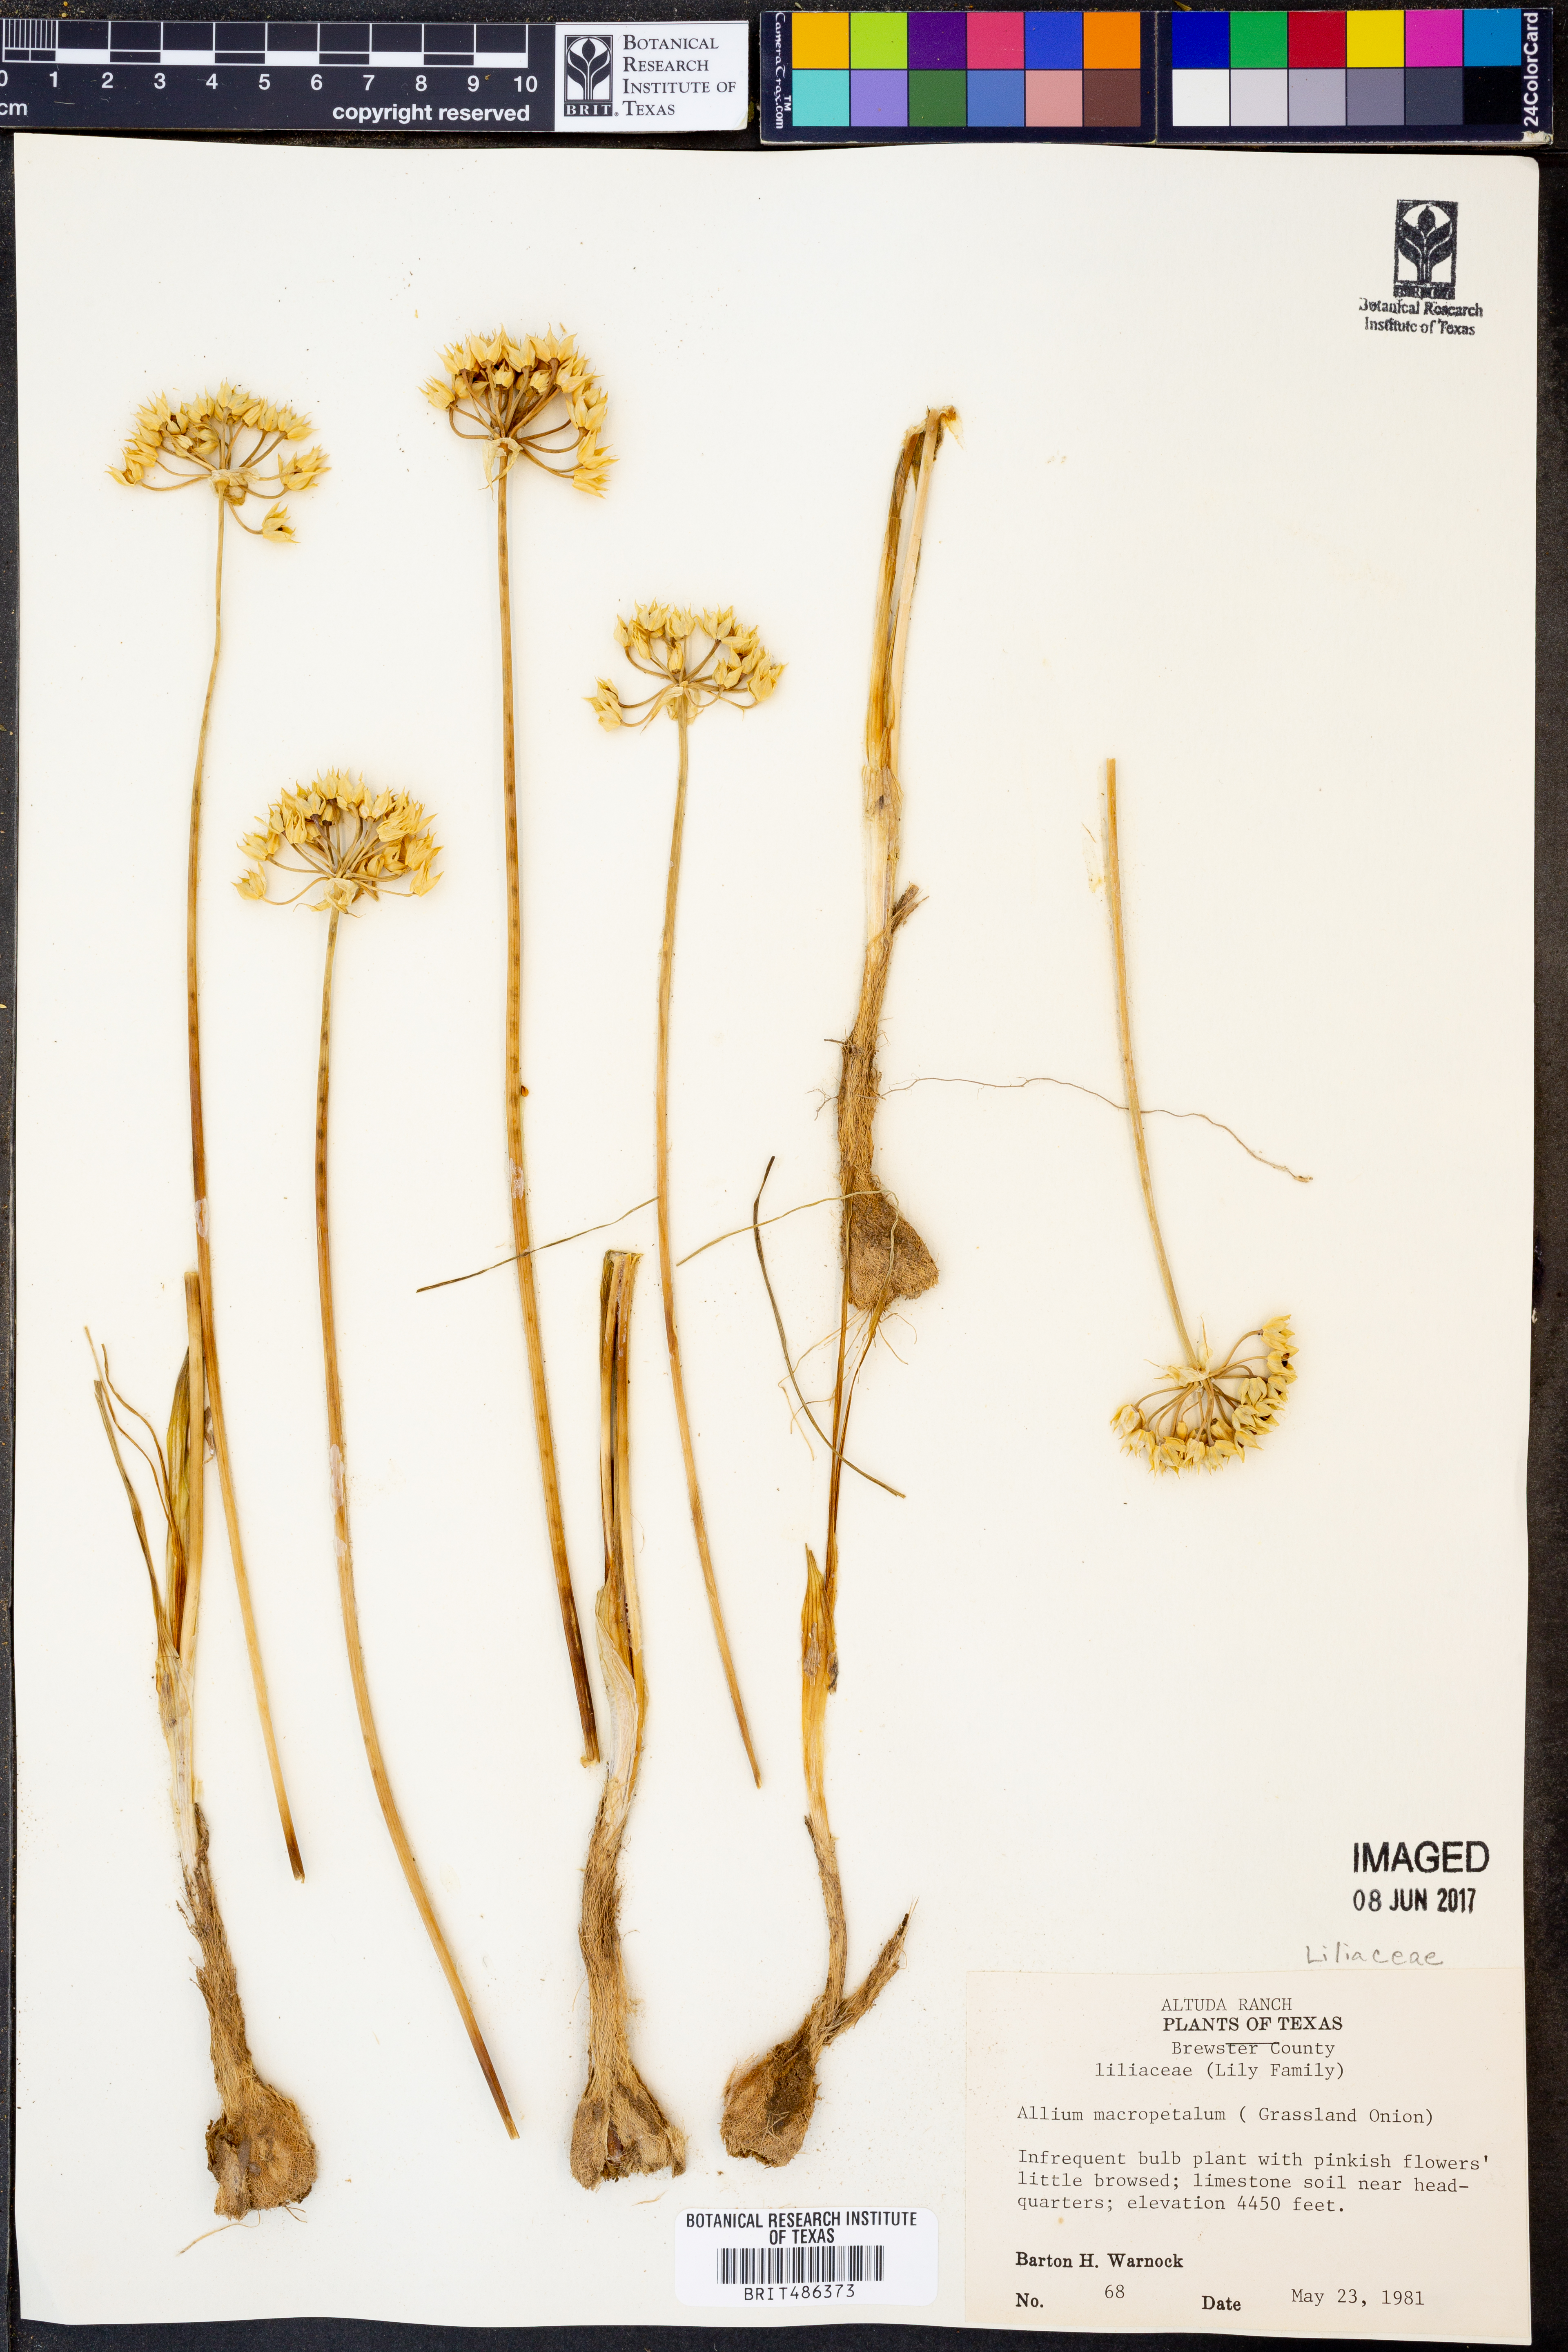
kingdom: Plantae
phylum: Tracheophyta
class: Liliopsida
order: Asparagales
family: Amaryllidaceae
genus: Allium
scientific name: Allium macropetalum
